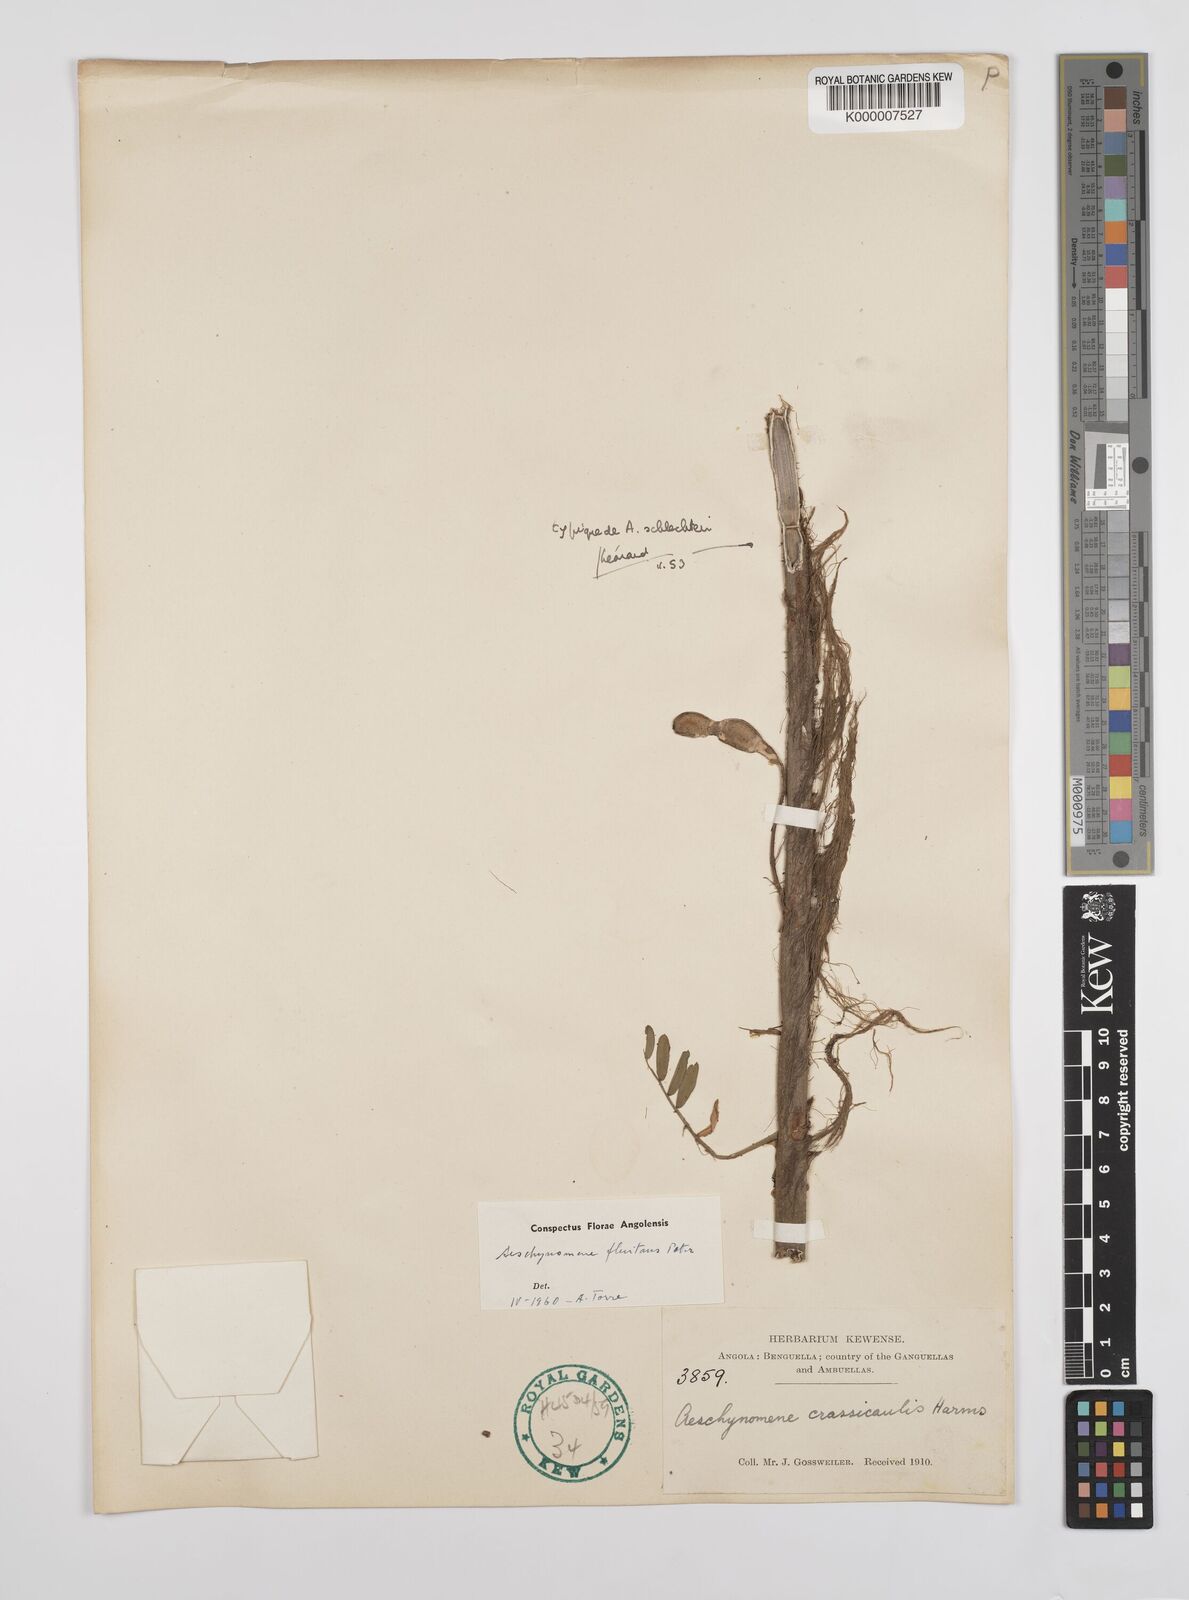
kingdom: Plantae
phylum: Tracheophyta
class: Magnoliopsida
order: Fabales
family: Fabaceae
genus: Aeschynomene
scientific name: Aeschynomene fluitans
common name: Giant water sensitive plant
